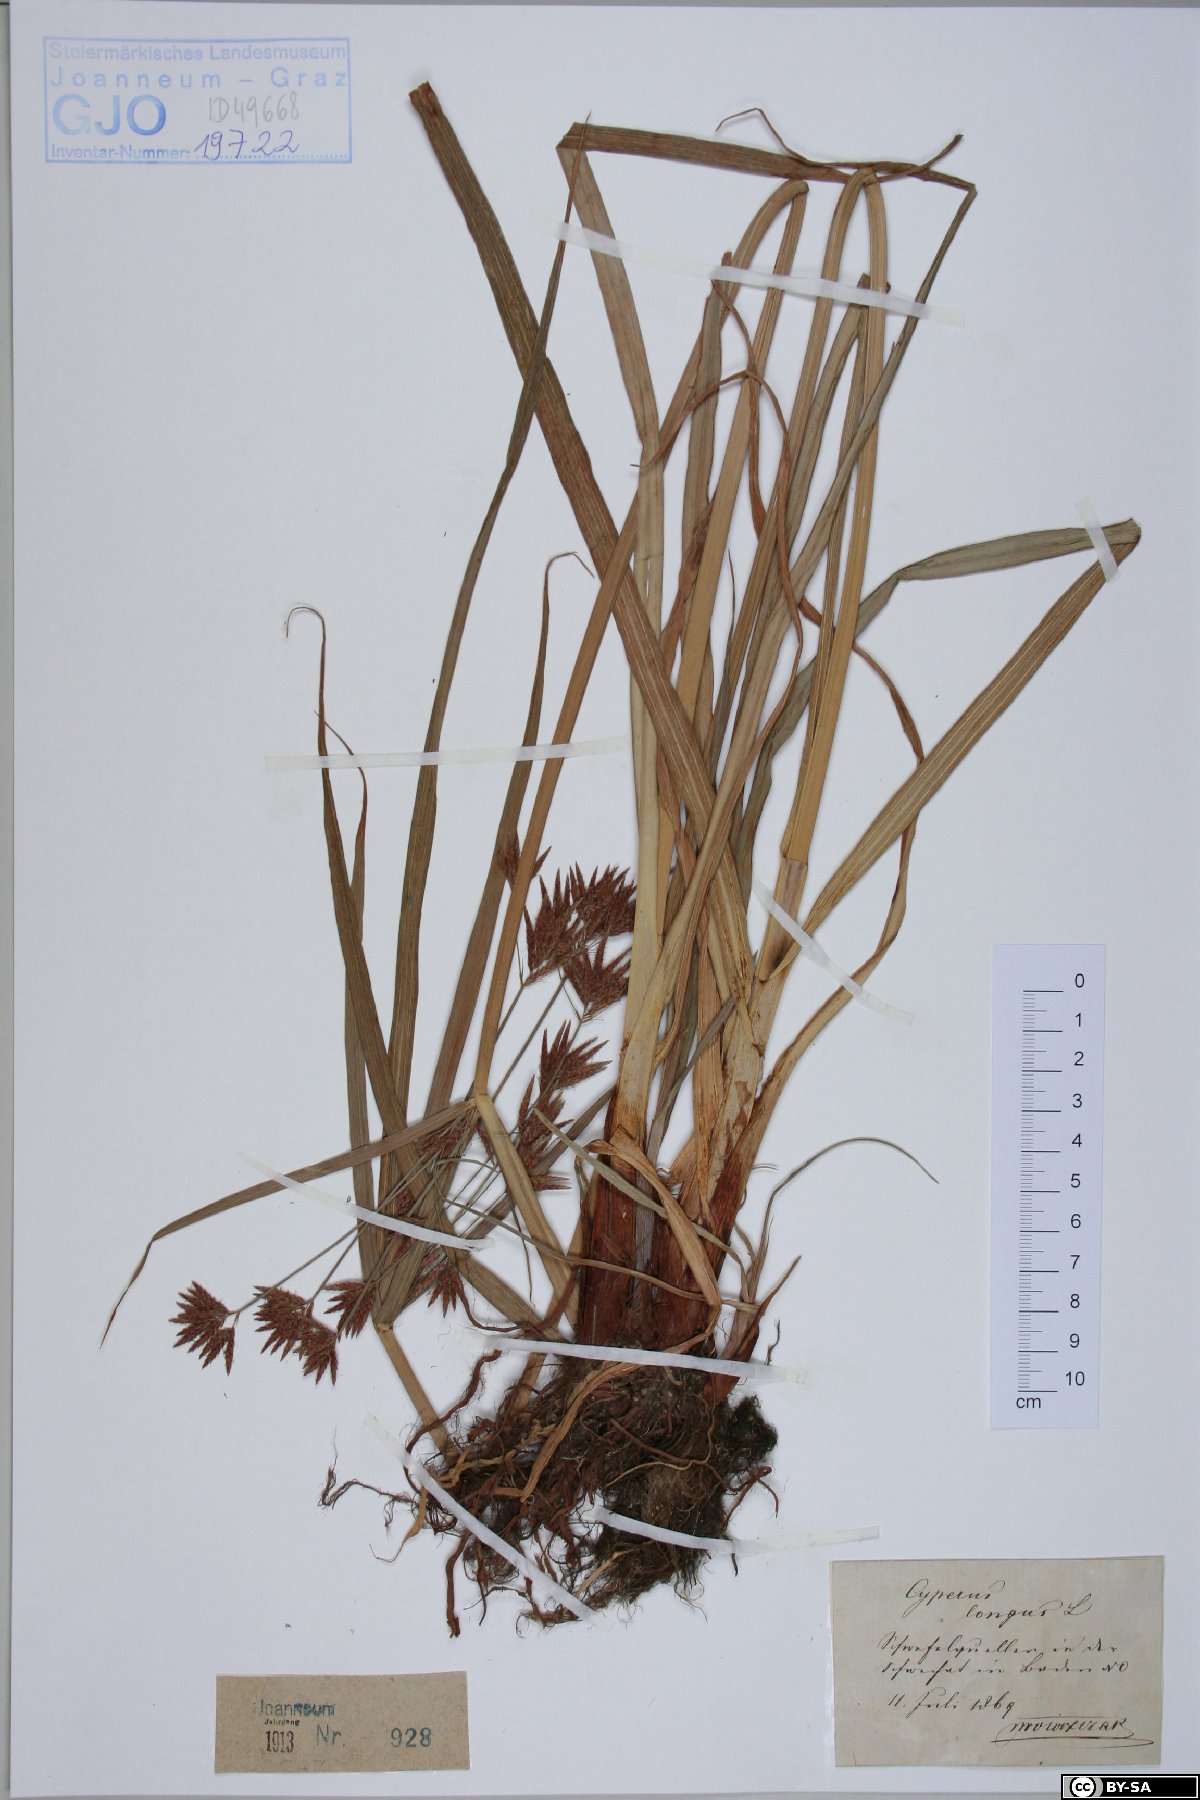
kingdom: Plantae
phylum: Tracheophyta
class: Liliopsida
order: Poales
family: Cyperaceae
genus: Cyperus
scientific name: Cyperus longus
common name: Galingale
